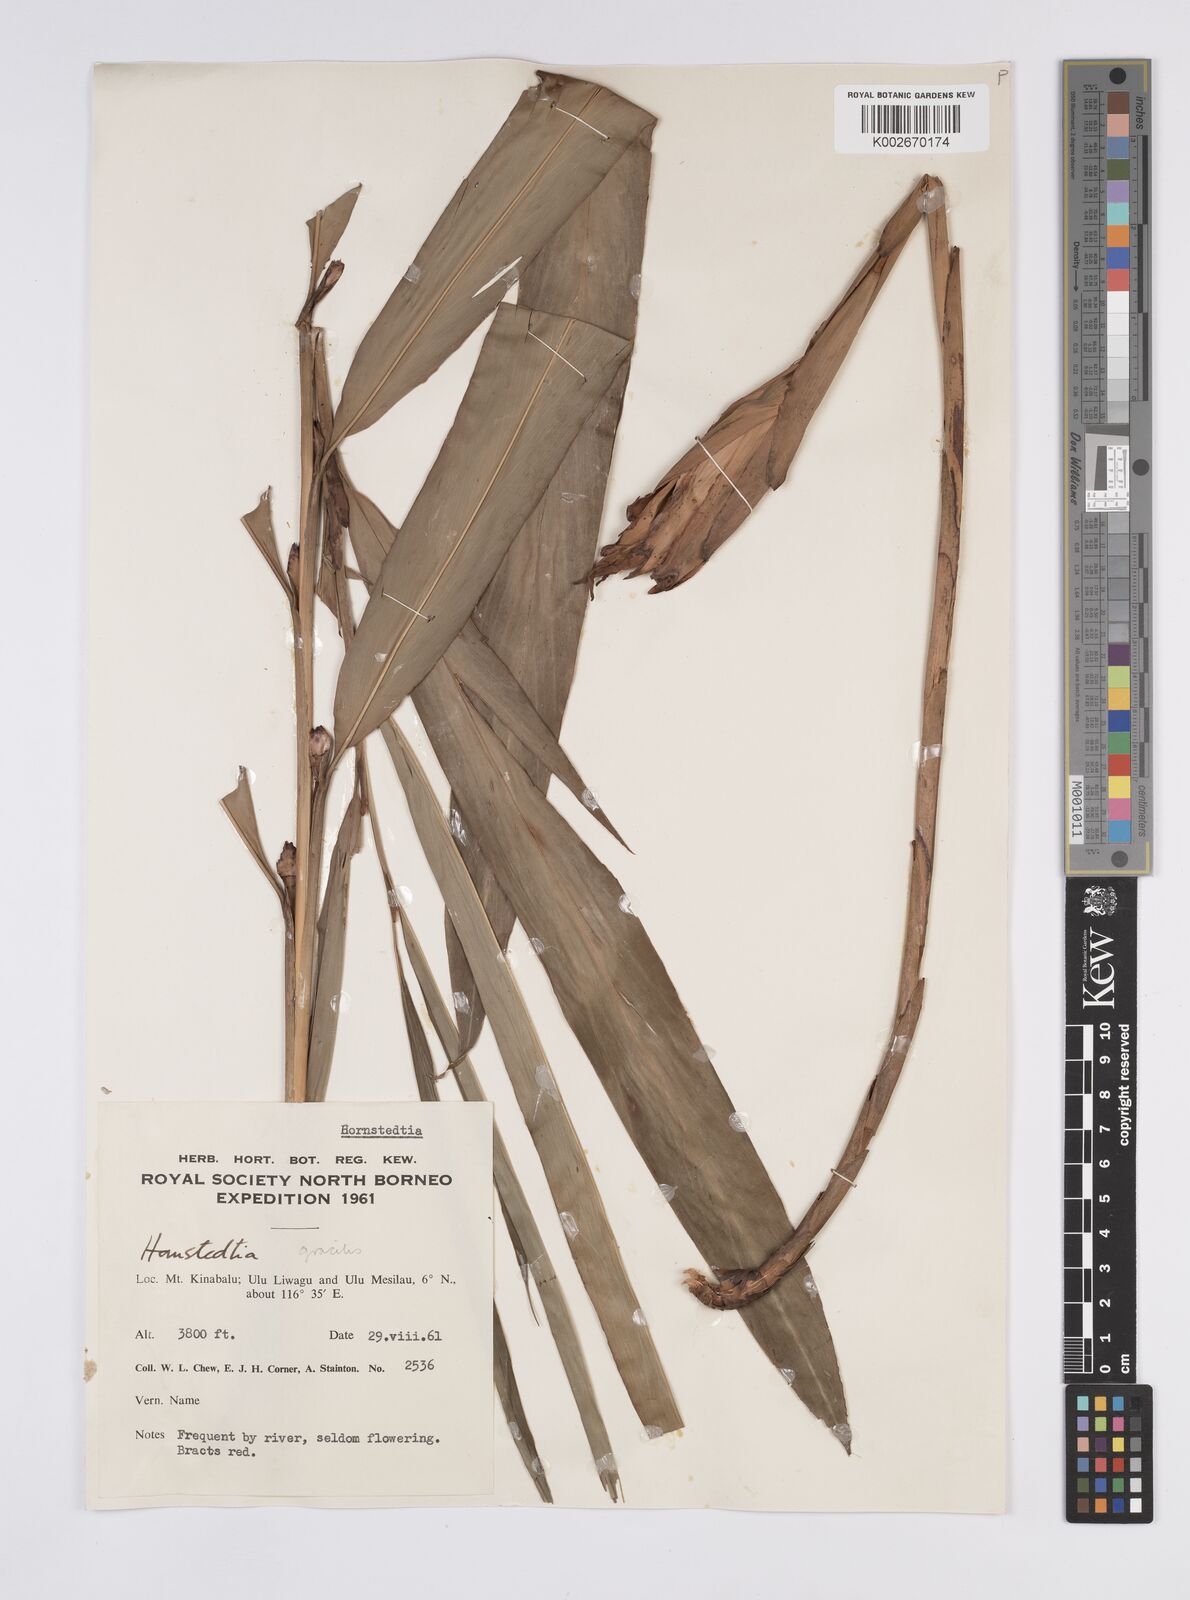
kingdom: Plantae
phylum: Tracheophyta
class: Liliopsida
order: Zingiberales
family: Zingiberaceae
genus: Hornstedtia
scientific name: Hornstedtia gracilis
